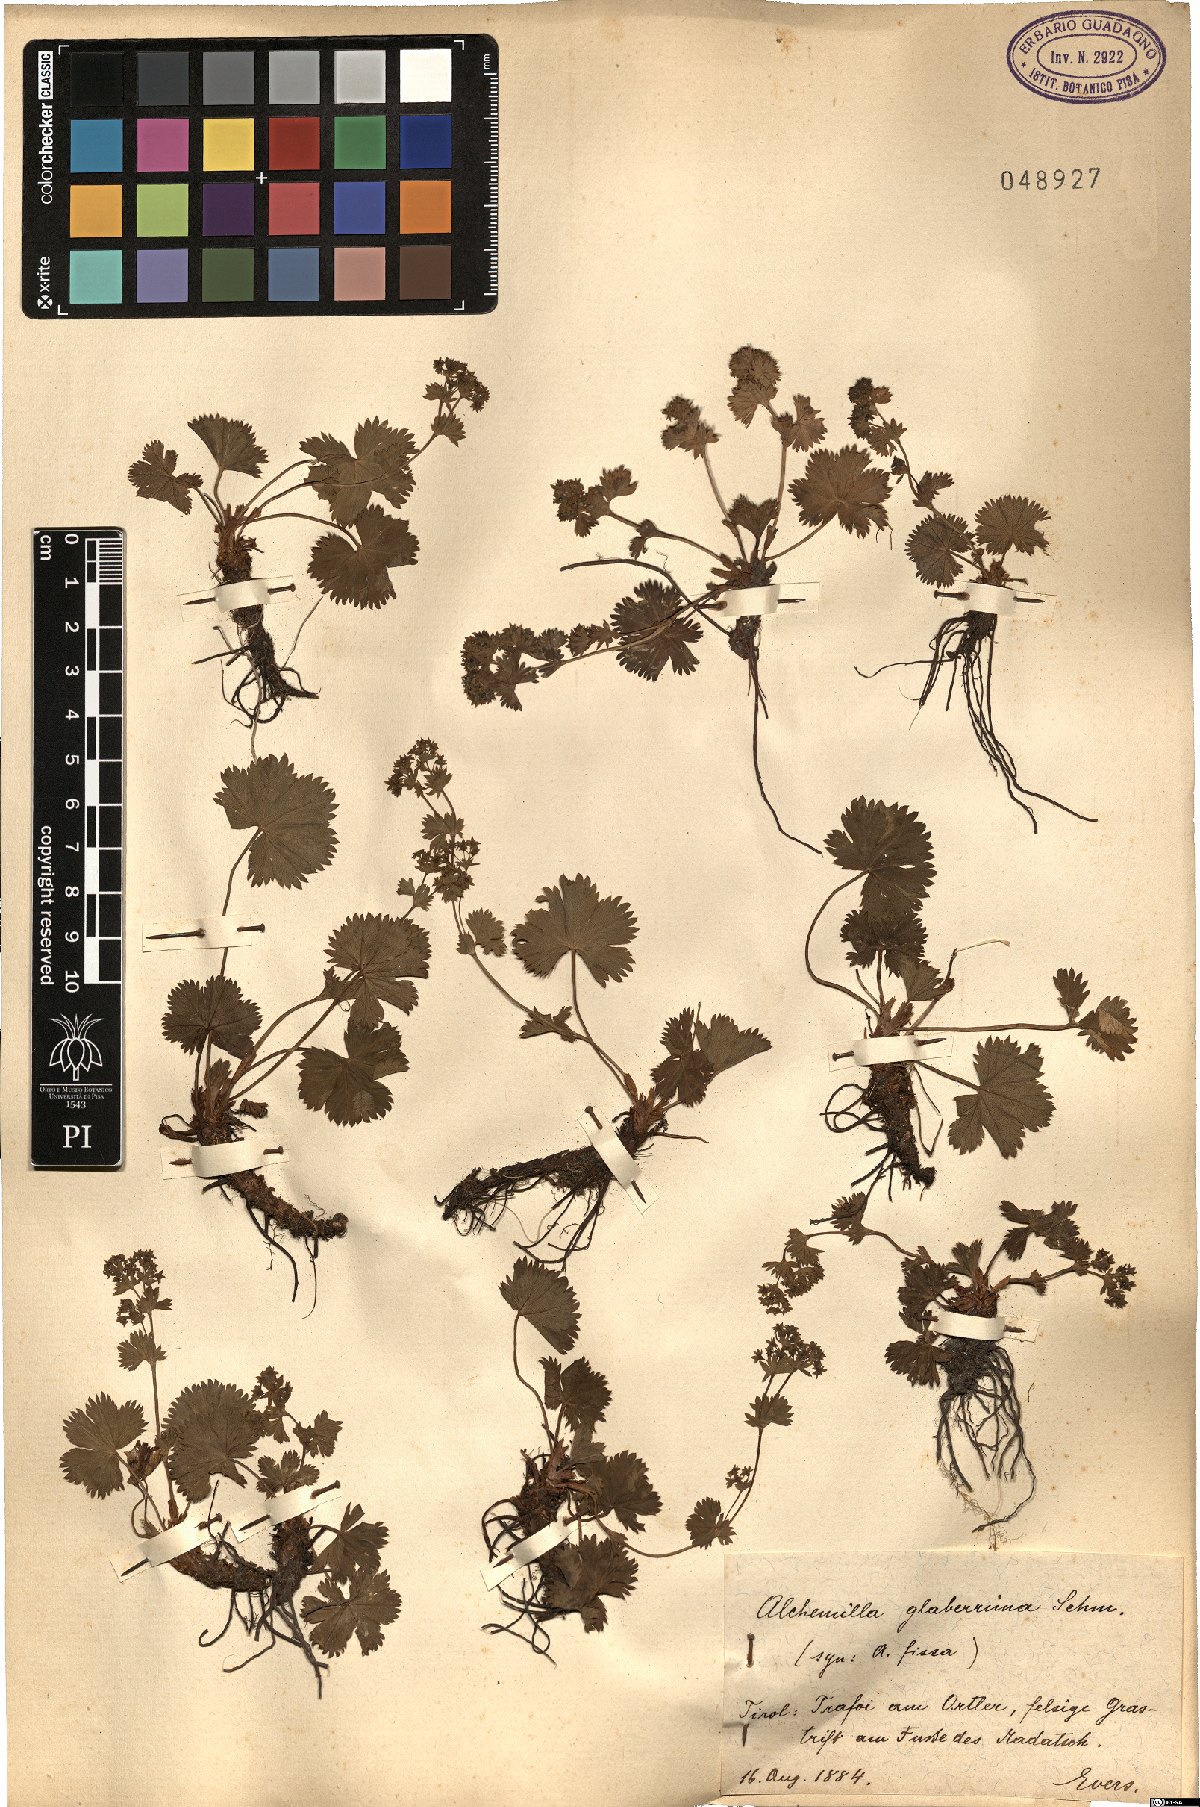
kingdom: Plantae
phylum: Tracheophyta
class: Magnoliopsida
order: Rosales
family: Rosaceae
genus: Alchemilla
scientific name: Alchemilla fissa
